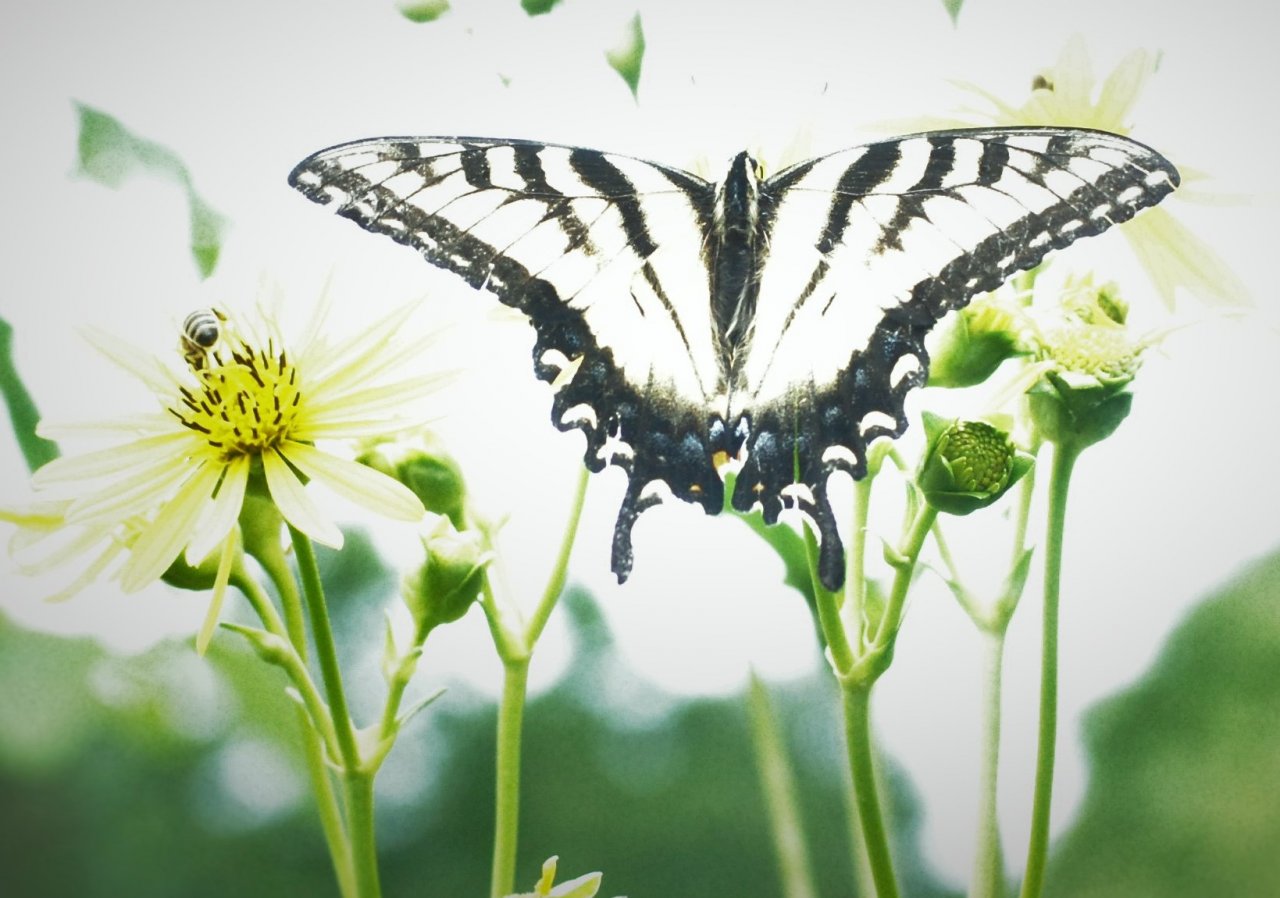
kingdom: Animalia
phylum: Arthropoda
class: Insecta
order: Lepidoptera
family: Papilionidae
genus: Pterourus
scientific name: Pterourus glaucus
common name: Eastern Tiger Swallowtail
